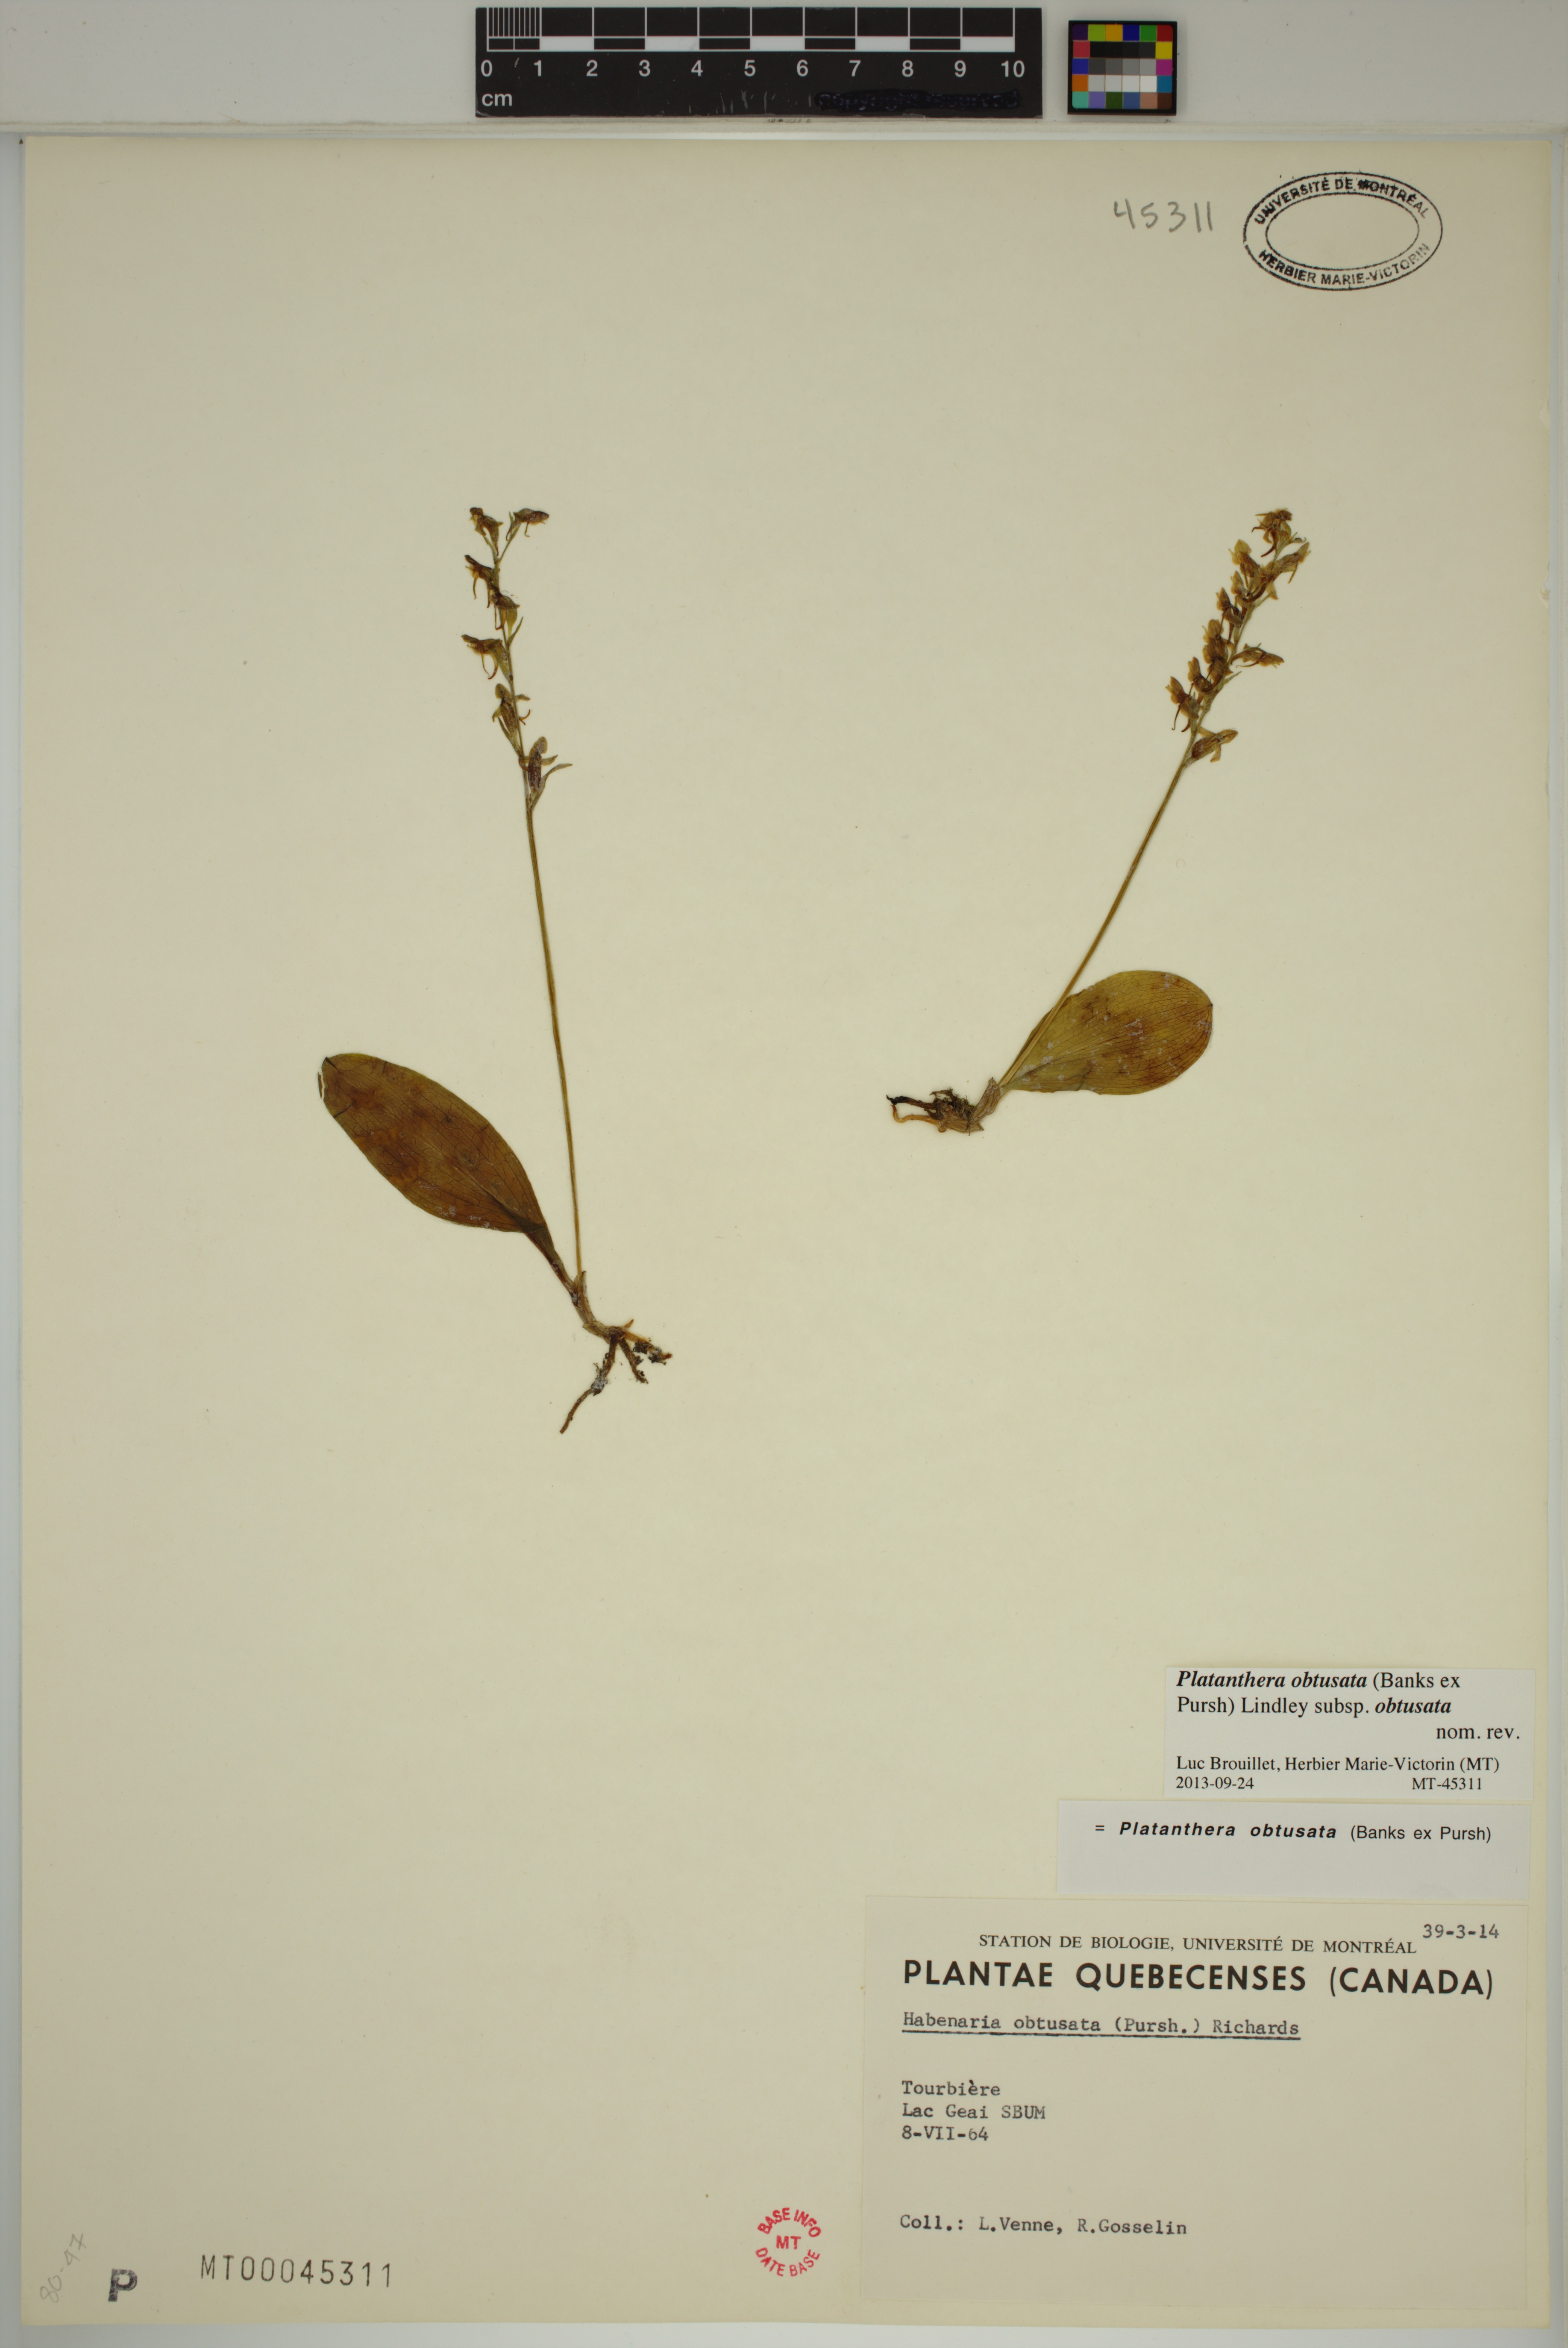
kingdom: Plantae
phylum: Tracheophyta
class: Liliopsida
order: Asparagales
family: Orchidaceae
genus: Platanthera
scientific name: Platanthera obtusata
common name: Blunt bog orchid
